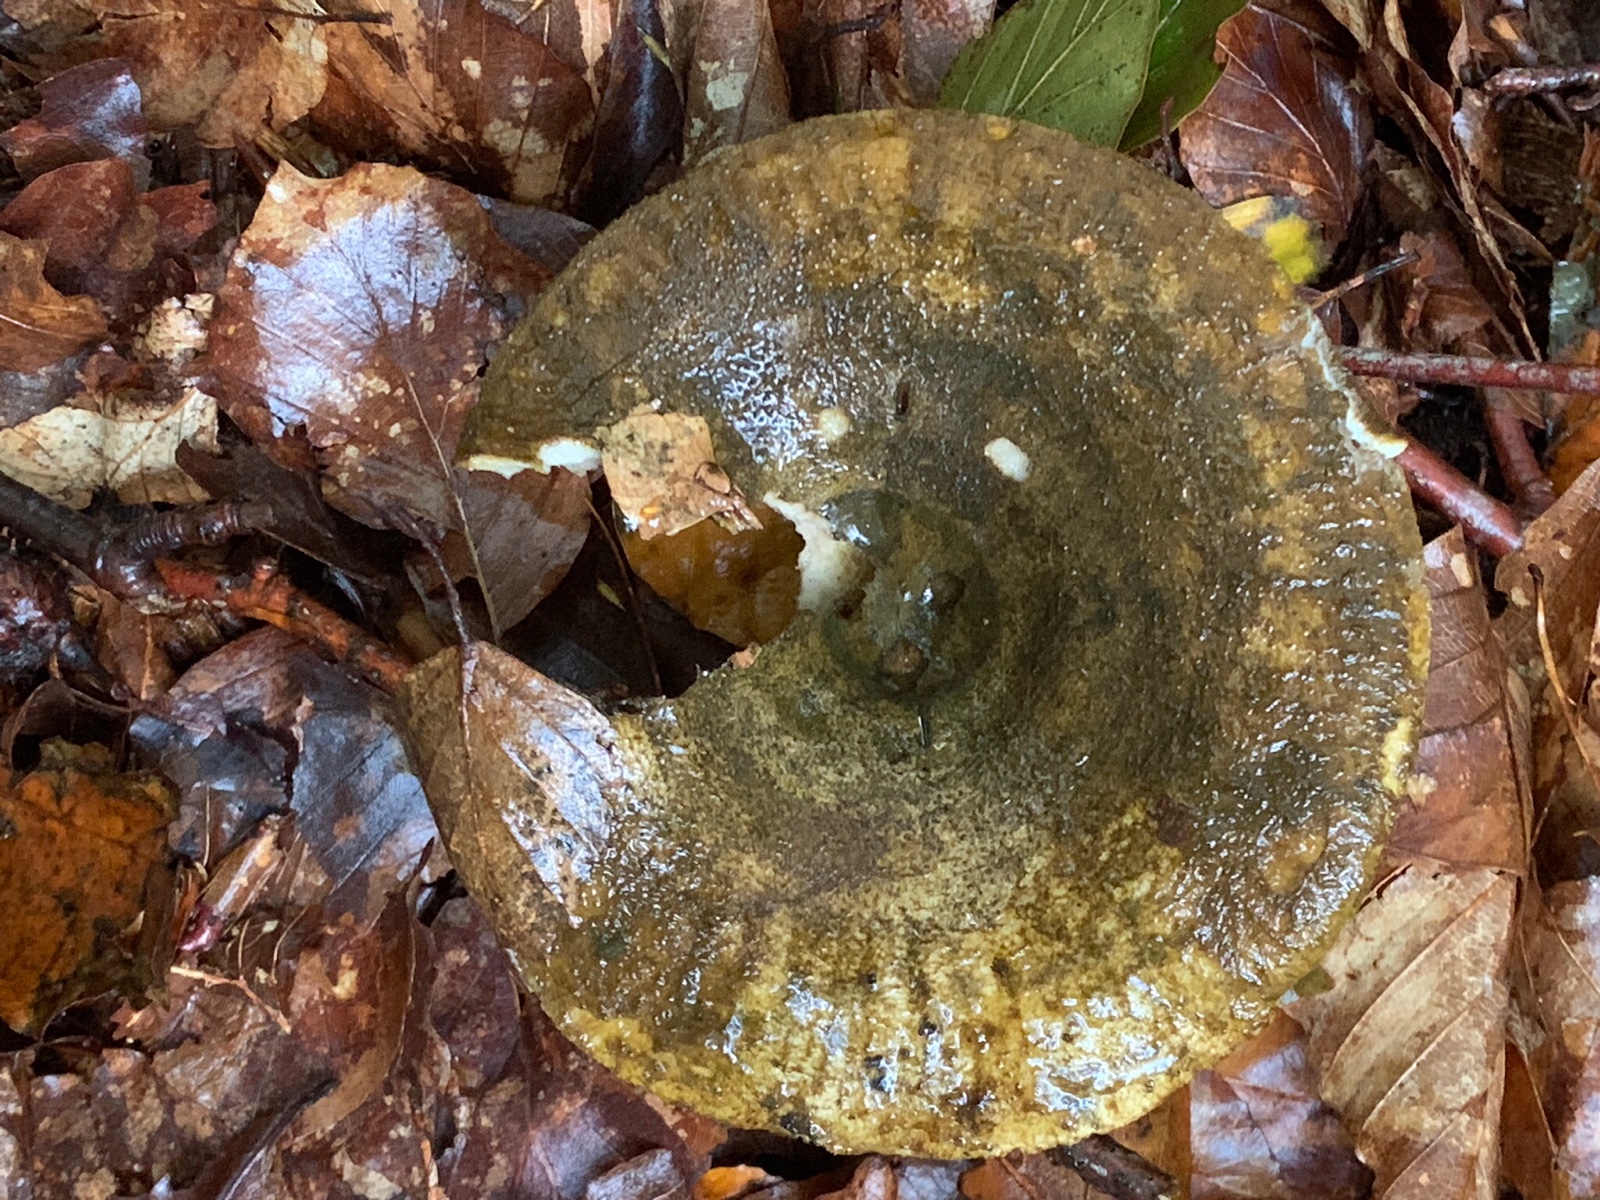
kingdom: Fungi
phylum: Basidiomycota
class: Agaricomycetes
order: Russulales
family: Russulaceae
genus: Lactarius
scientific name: Lactarius necator
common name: manddraber-mælkehat
